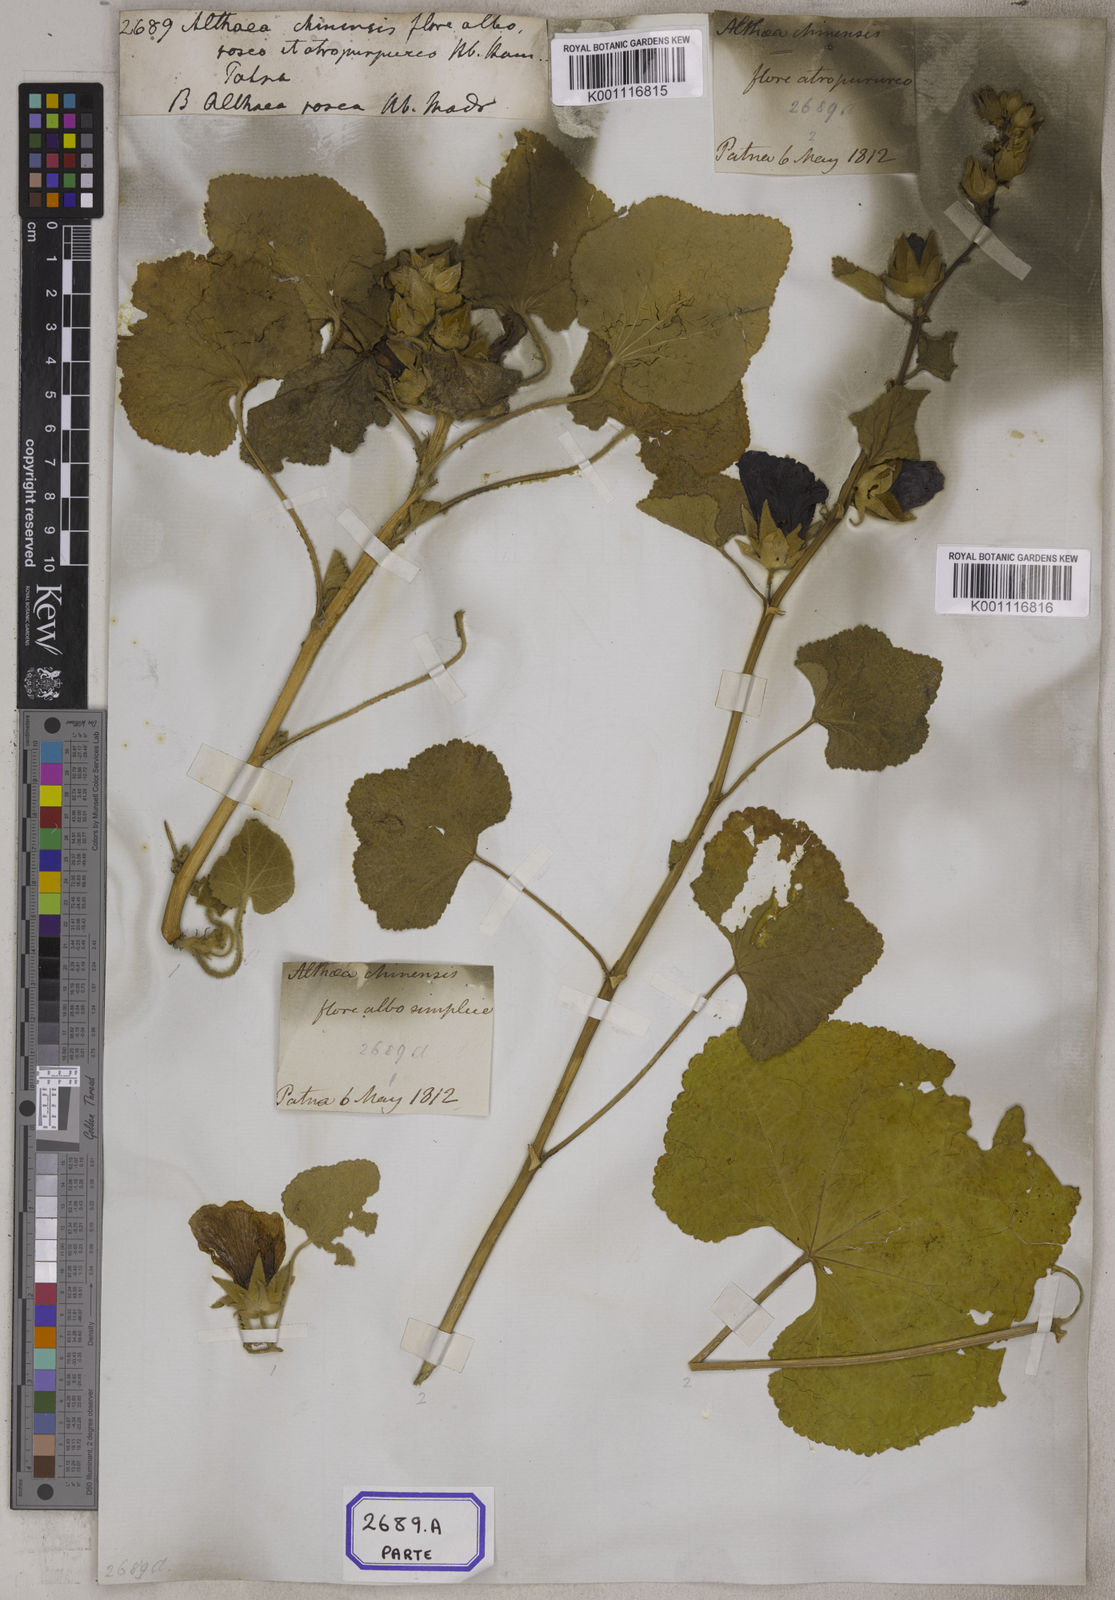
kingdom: Plantae
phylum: Tracheophyta
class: Magnoliopsida
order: Malvales
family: Malvaceae
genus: Alcea
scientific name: Alcea rosea
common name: Hollyhock
